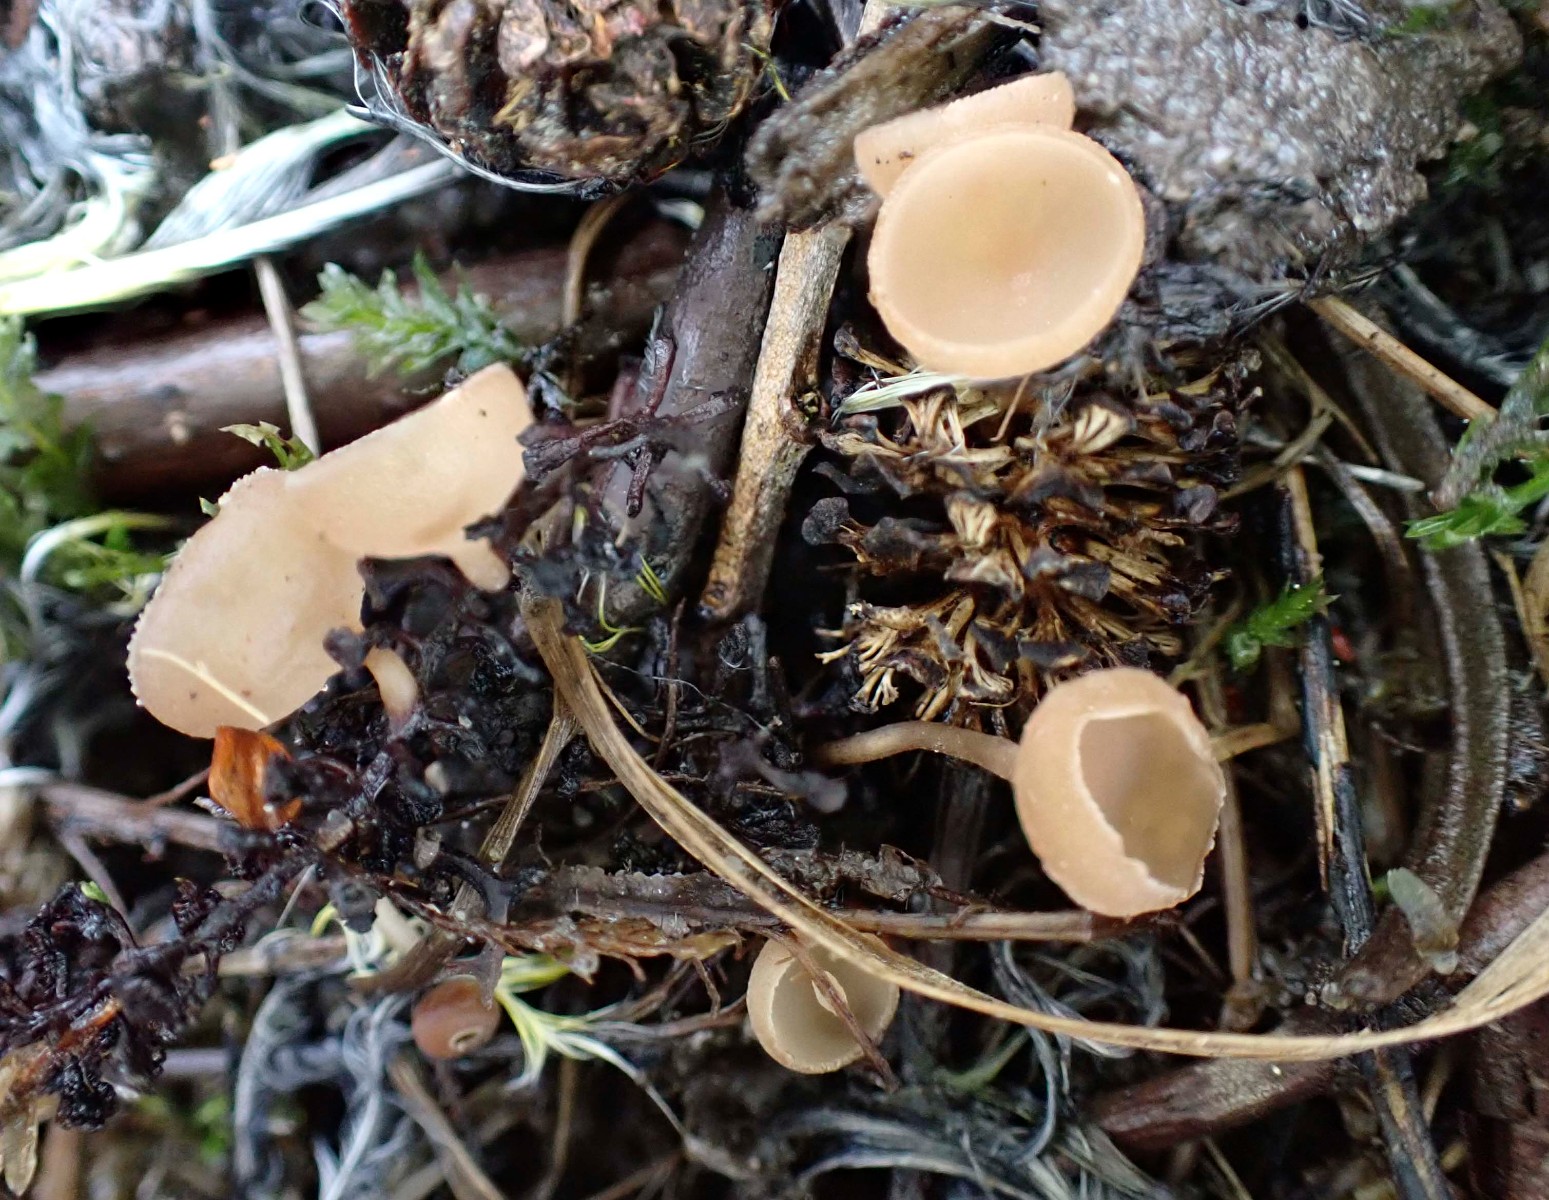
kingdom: Fungi
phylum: Ascomycota
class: Leotiomycetes
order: Helotiales
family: Sclerotiniaceae
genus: Ciboria
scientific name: Ciboria amentacea
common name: ellerakle-knoldskive
